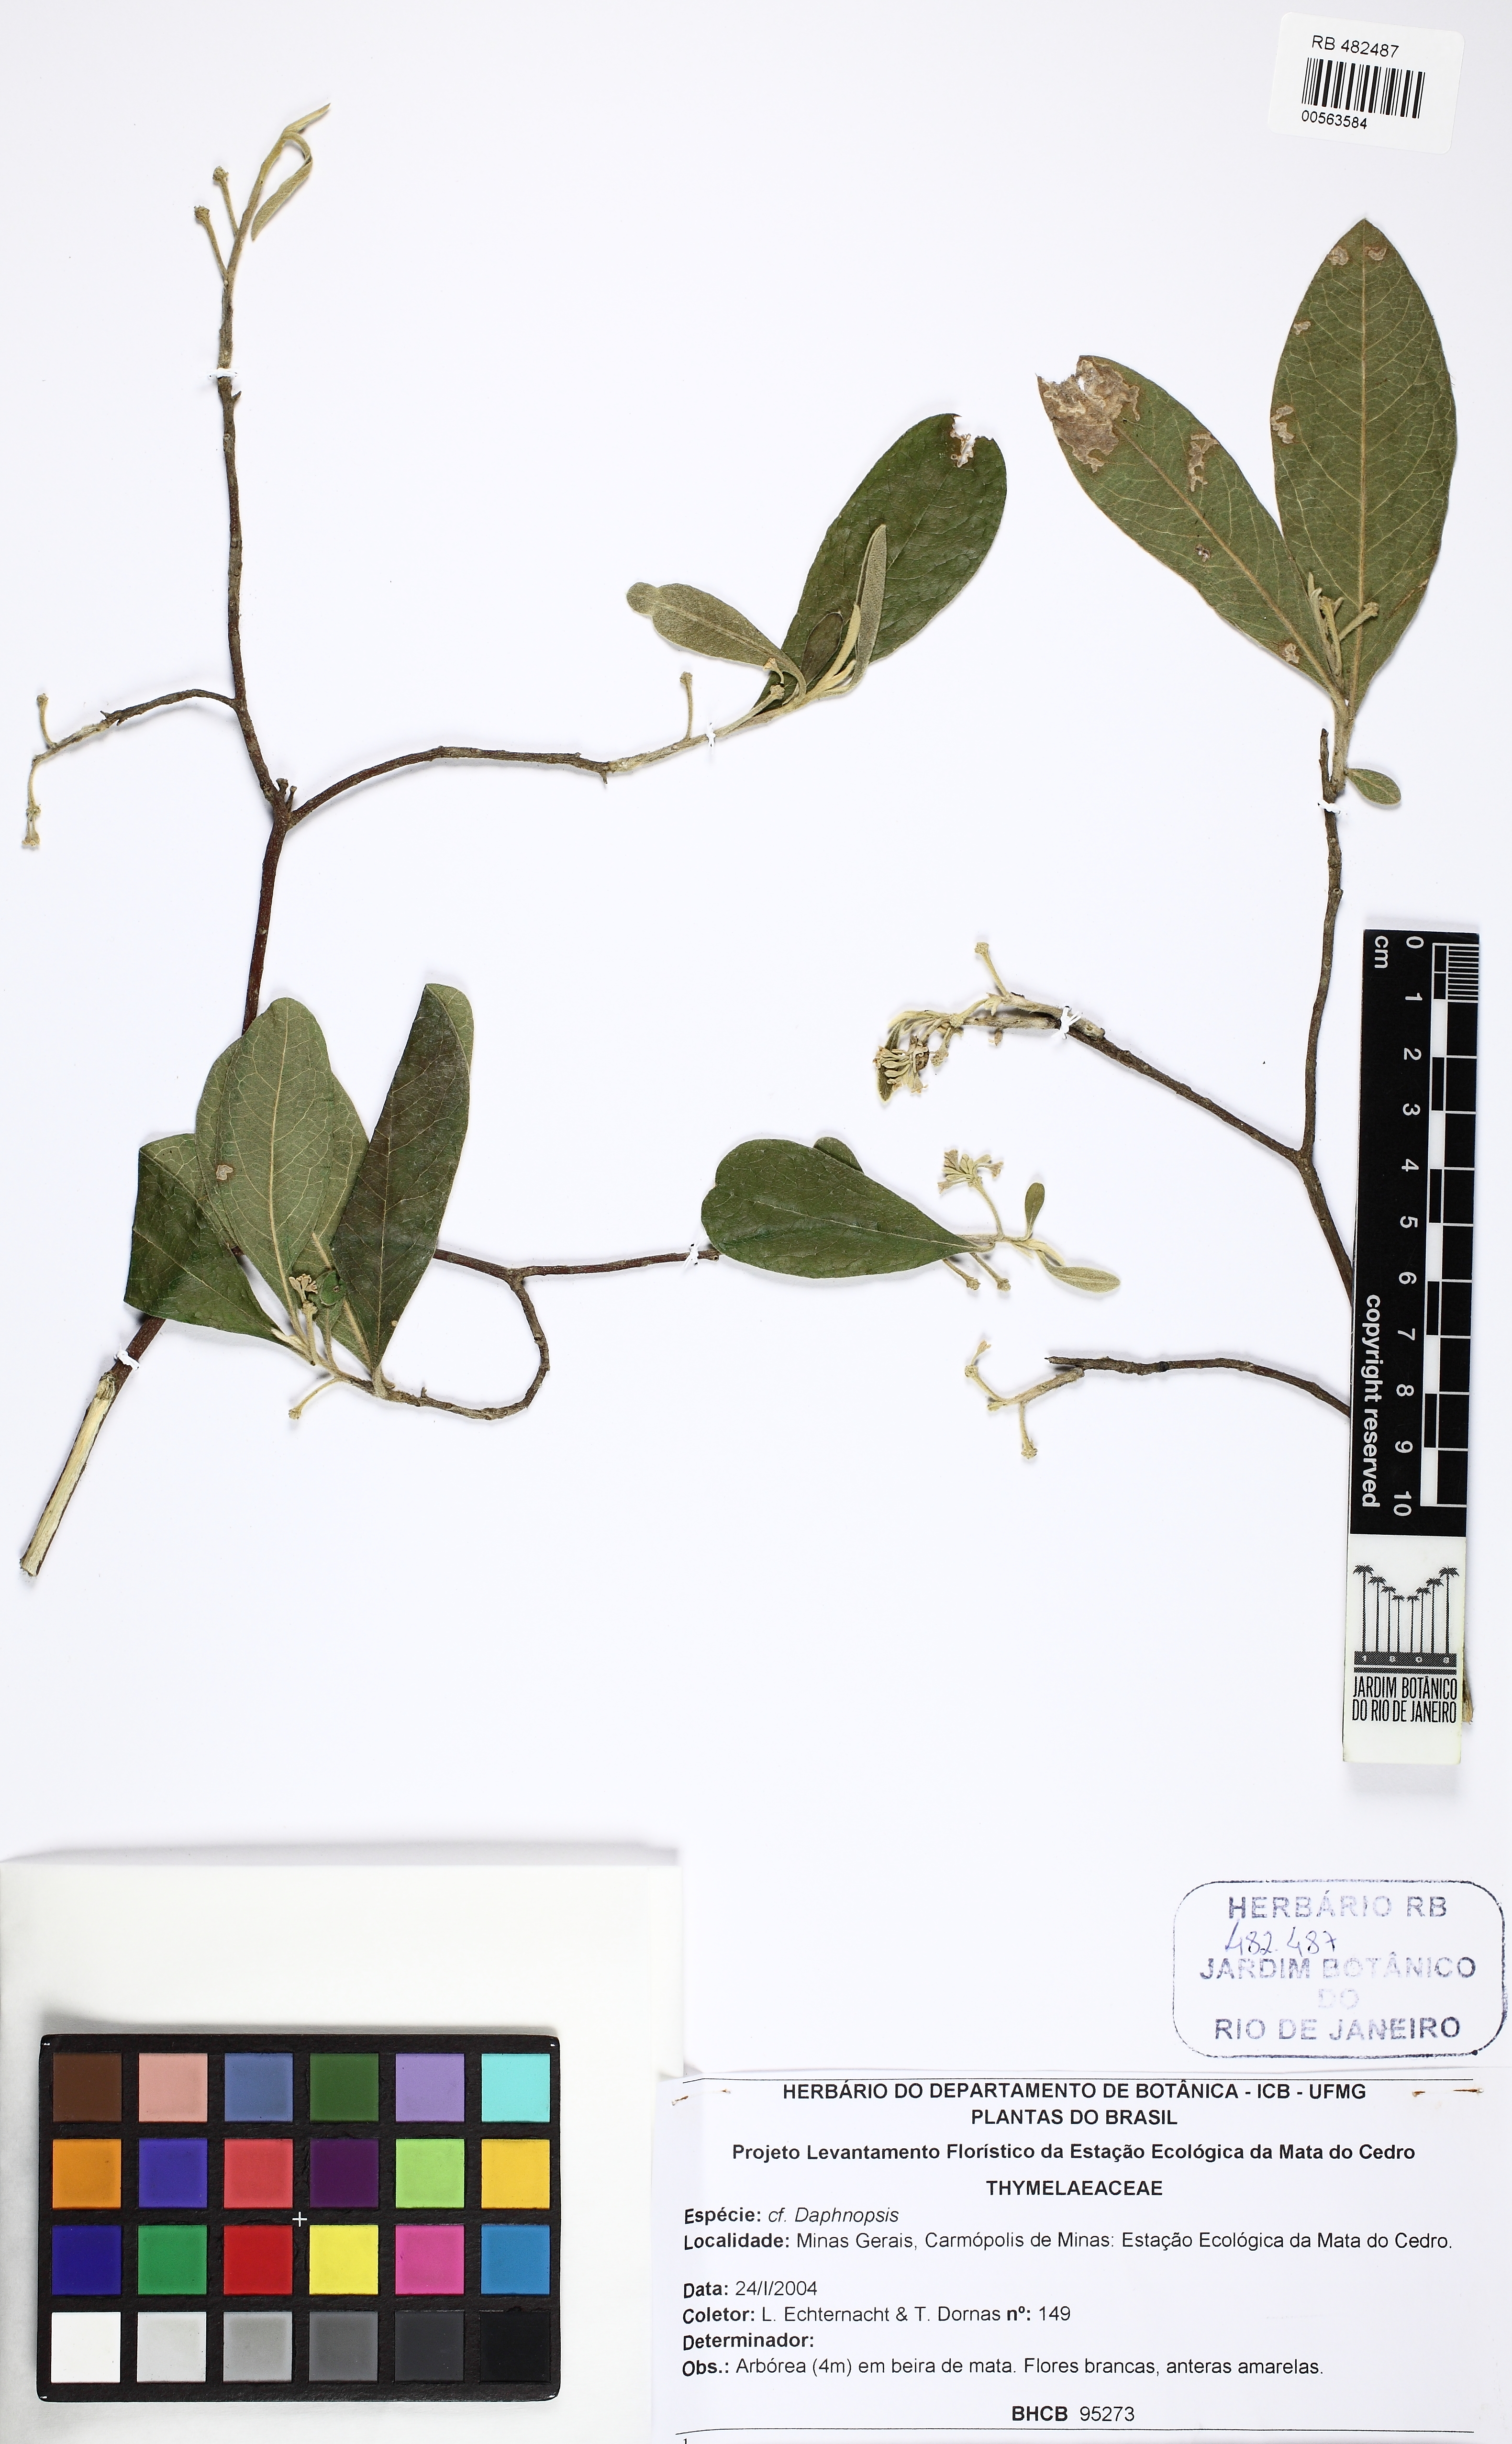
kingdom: Plantae
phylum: Tracheophyta
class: Magnoliopsida
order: Malvales
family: Thymelaeaceae
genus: Daphnopsis
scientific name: Daphnopsis
